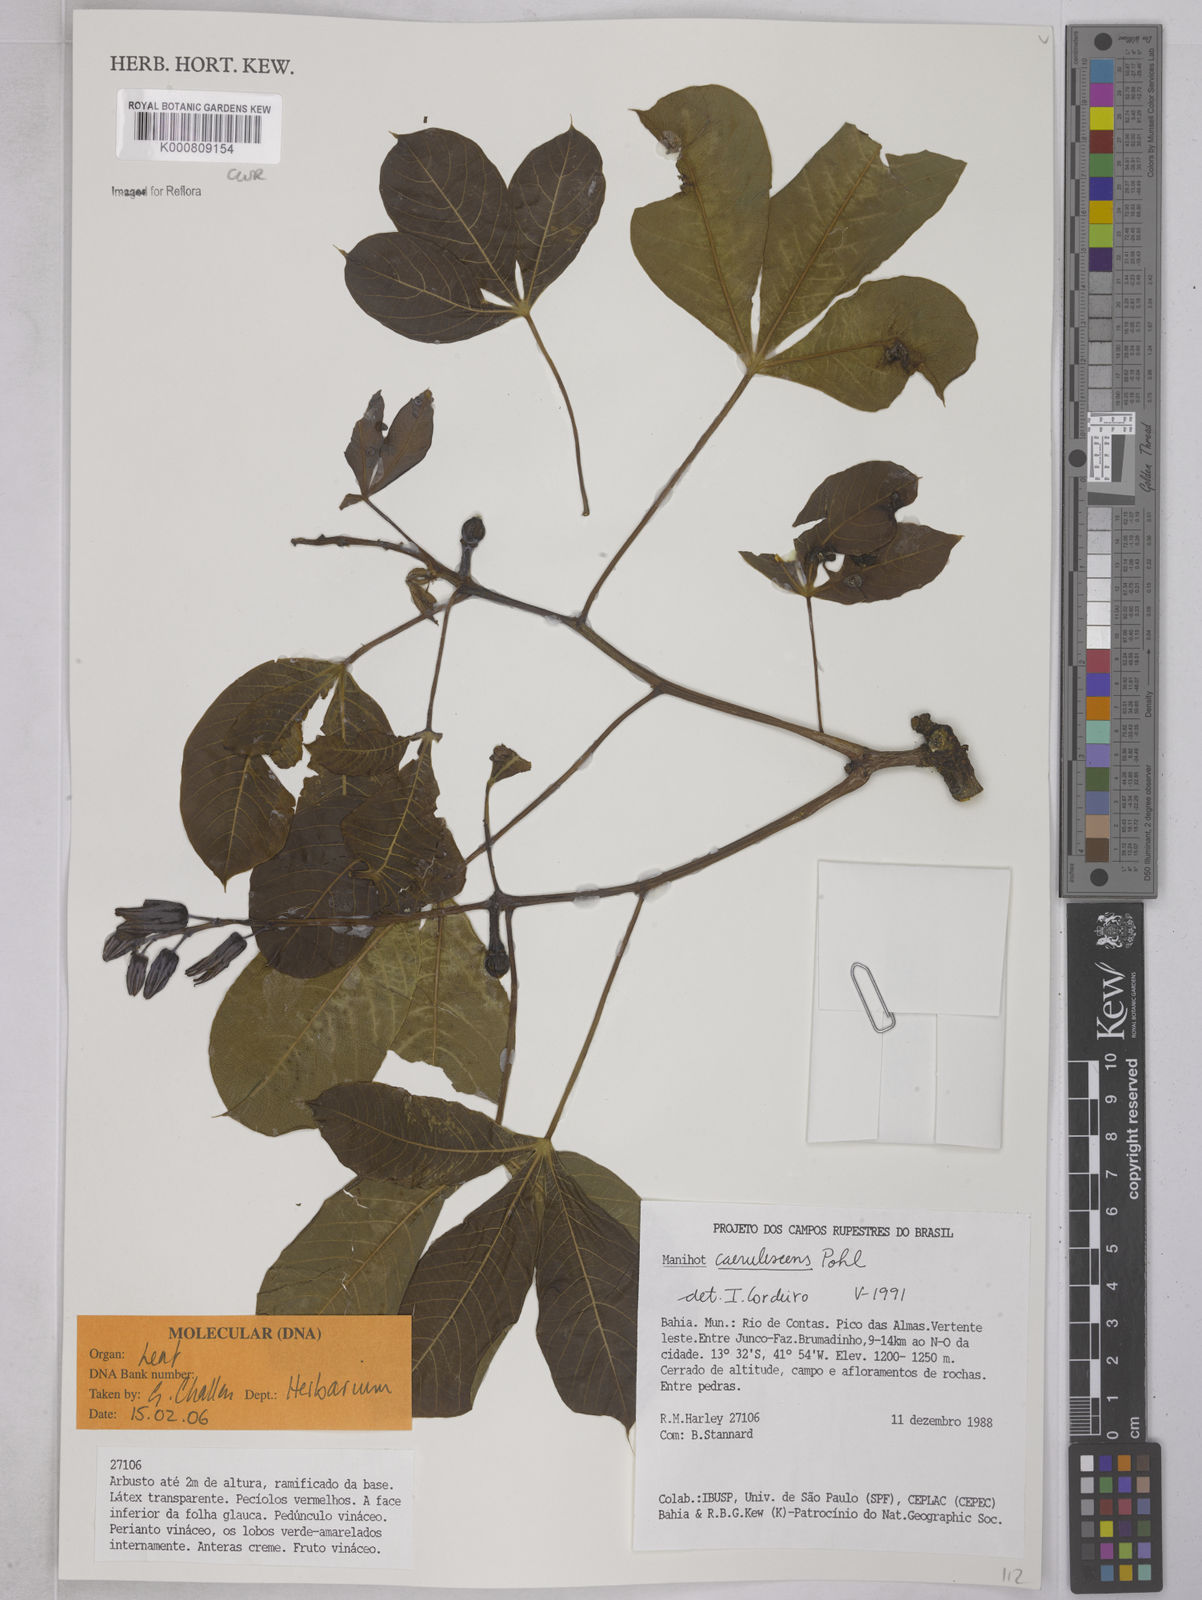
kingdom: Plantae
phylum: Tracheophyta
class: Magnoliopsida
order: Malpighiales
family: Euphorbiaceae
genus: Manihot
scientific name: Manihot caerulescens
